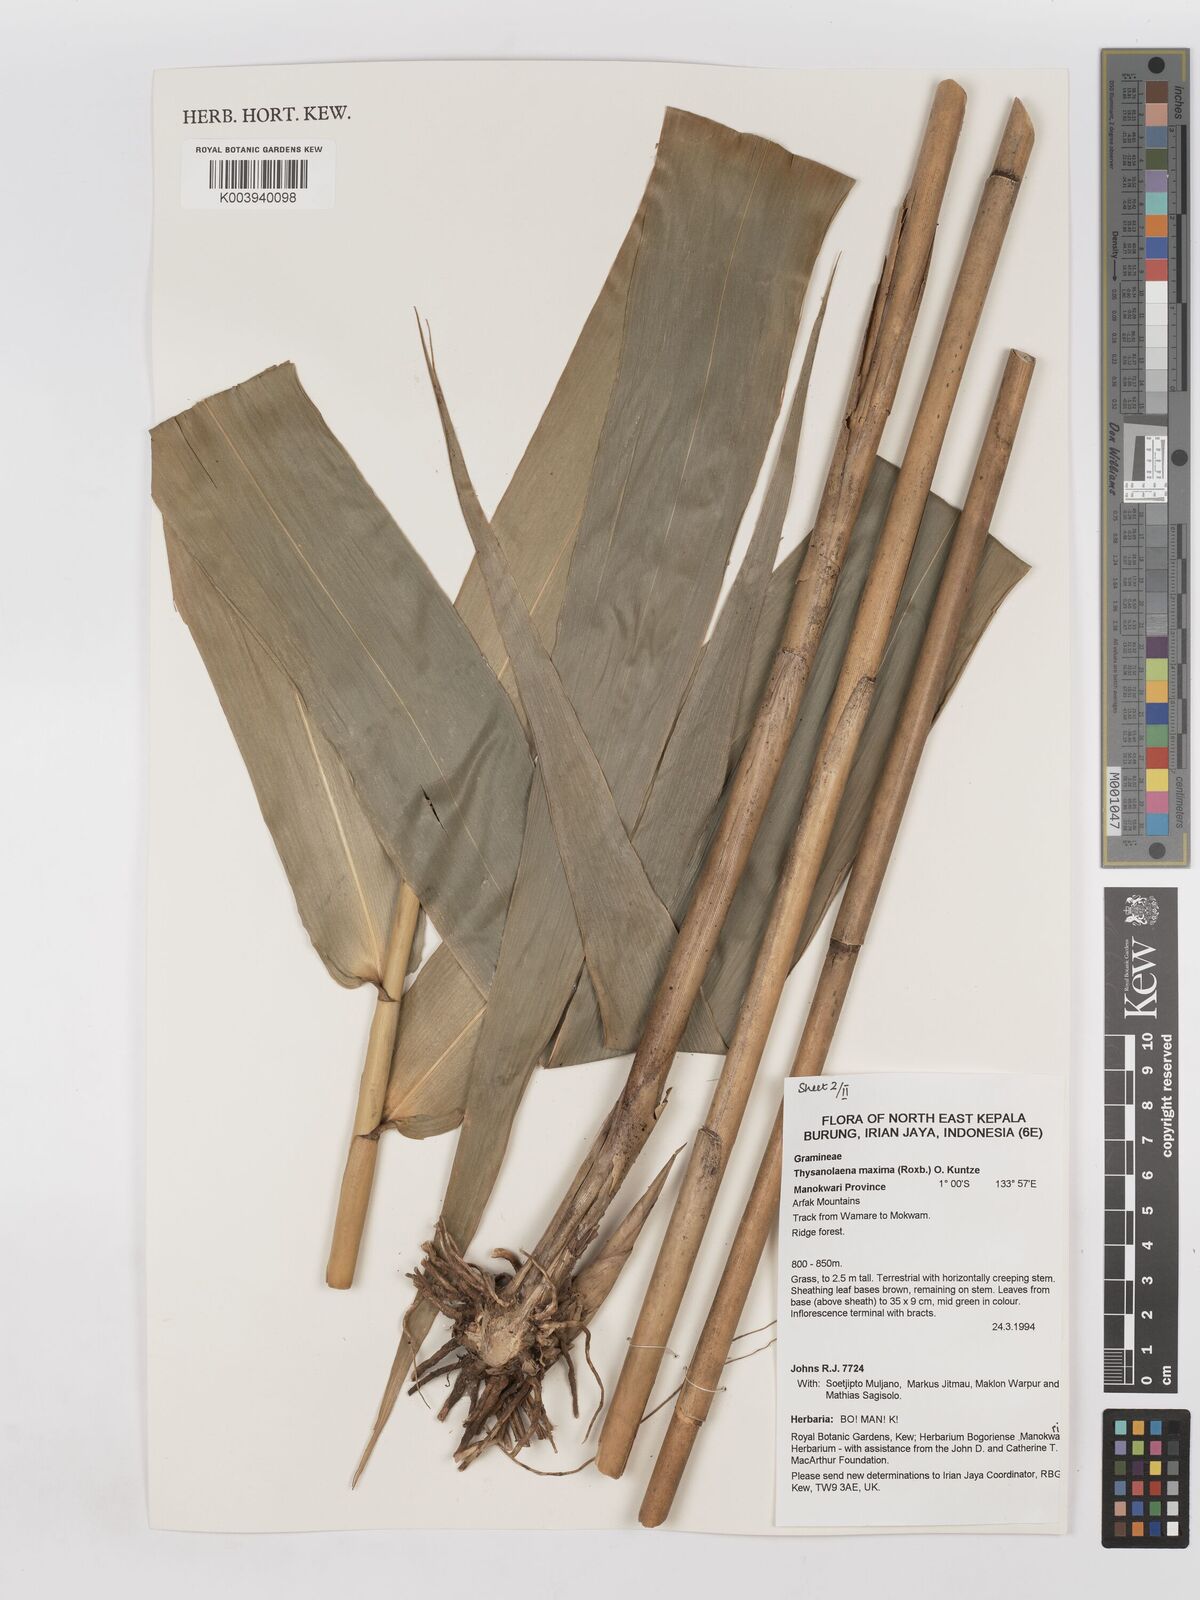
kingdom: Plantae
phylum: Tracheophyta
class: Liliopsida
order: Poales
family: Poaceae
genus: Thysanolaena
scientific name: Thysanolaena latifolia
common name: Tiger grass
